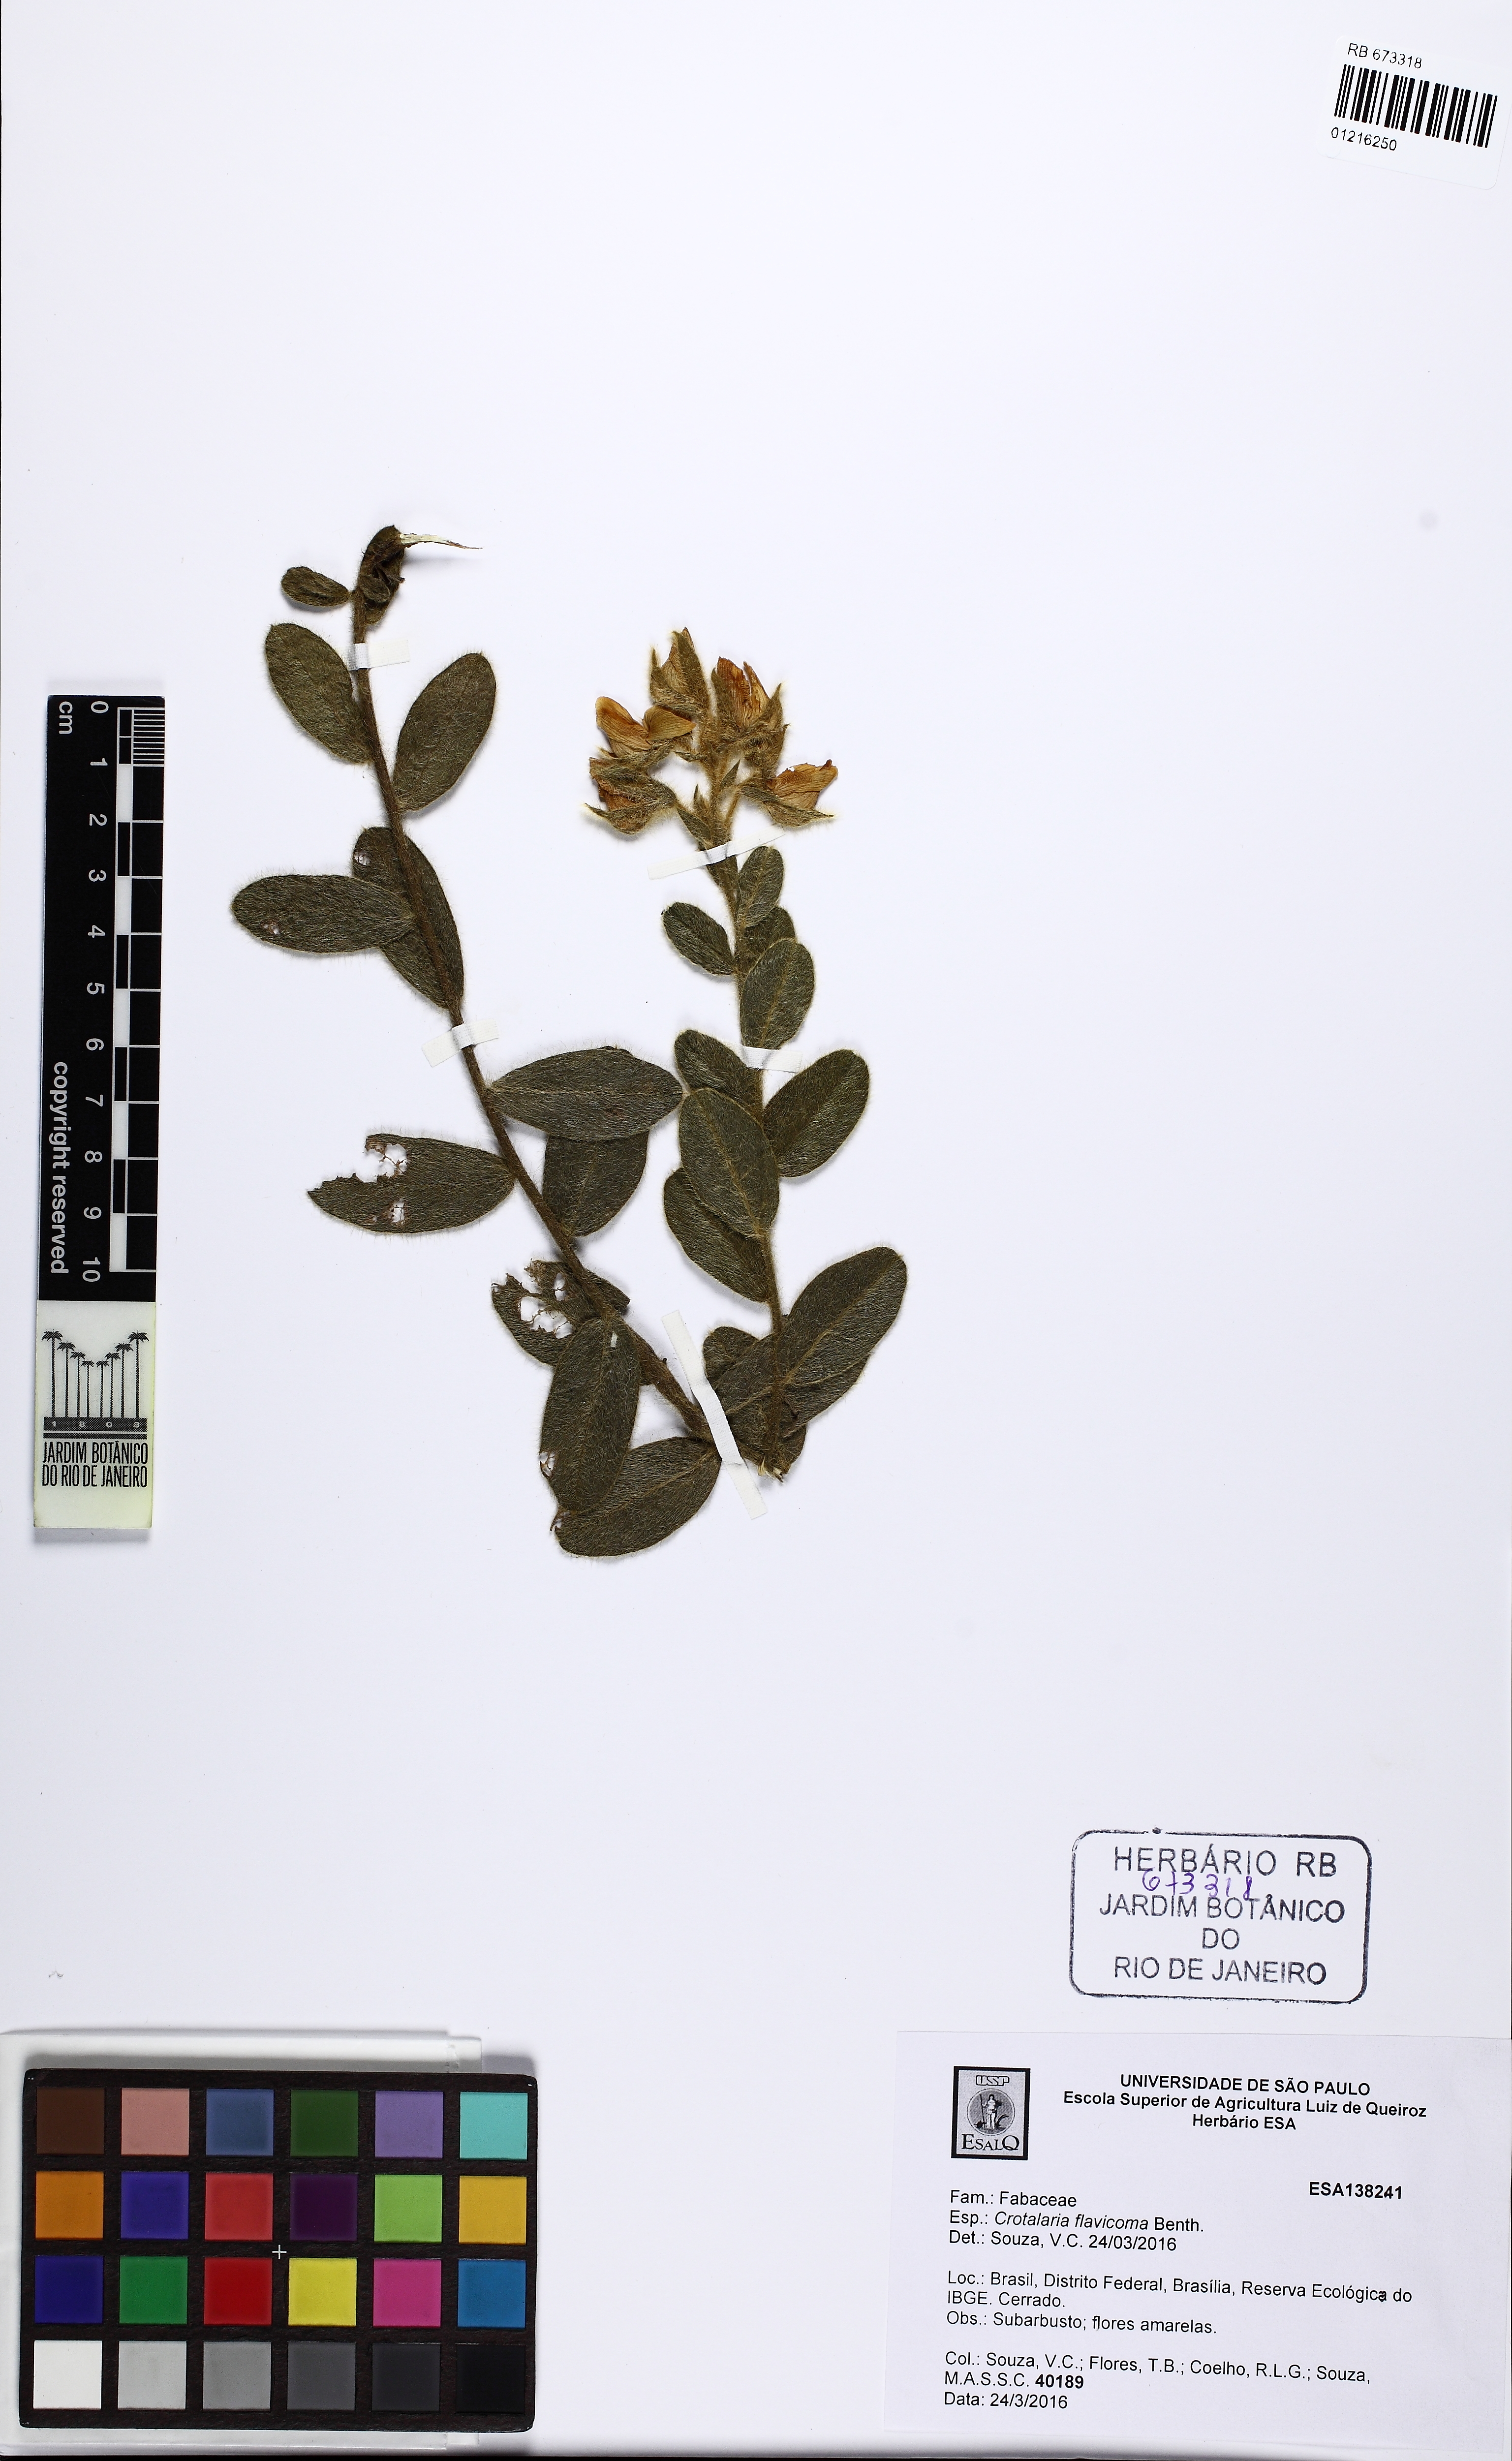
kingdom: Plantae
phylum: Tracheophyta
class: Magnoliopsida
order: Fabales
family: Fabaceae
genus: Crotalaria
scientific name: Crotalaria flavicoma
